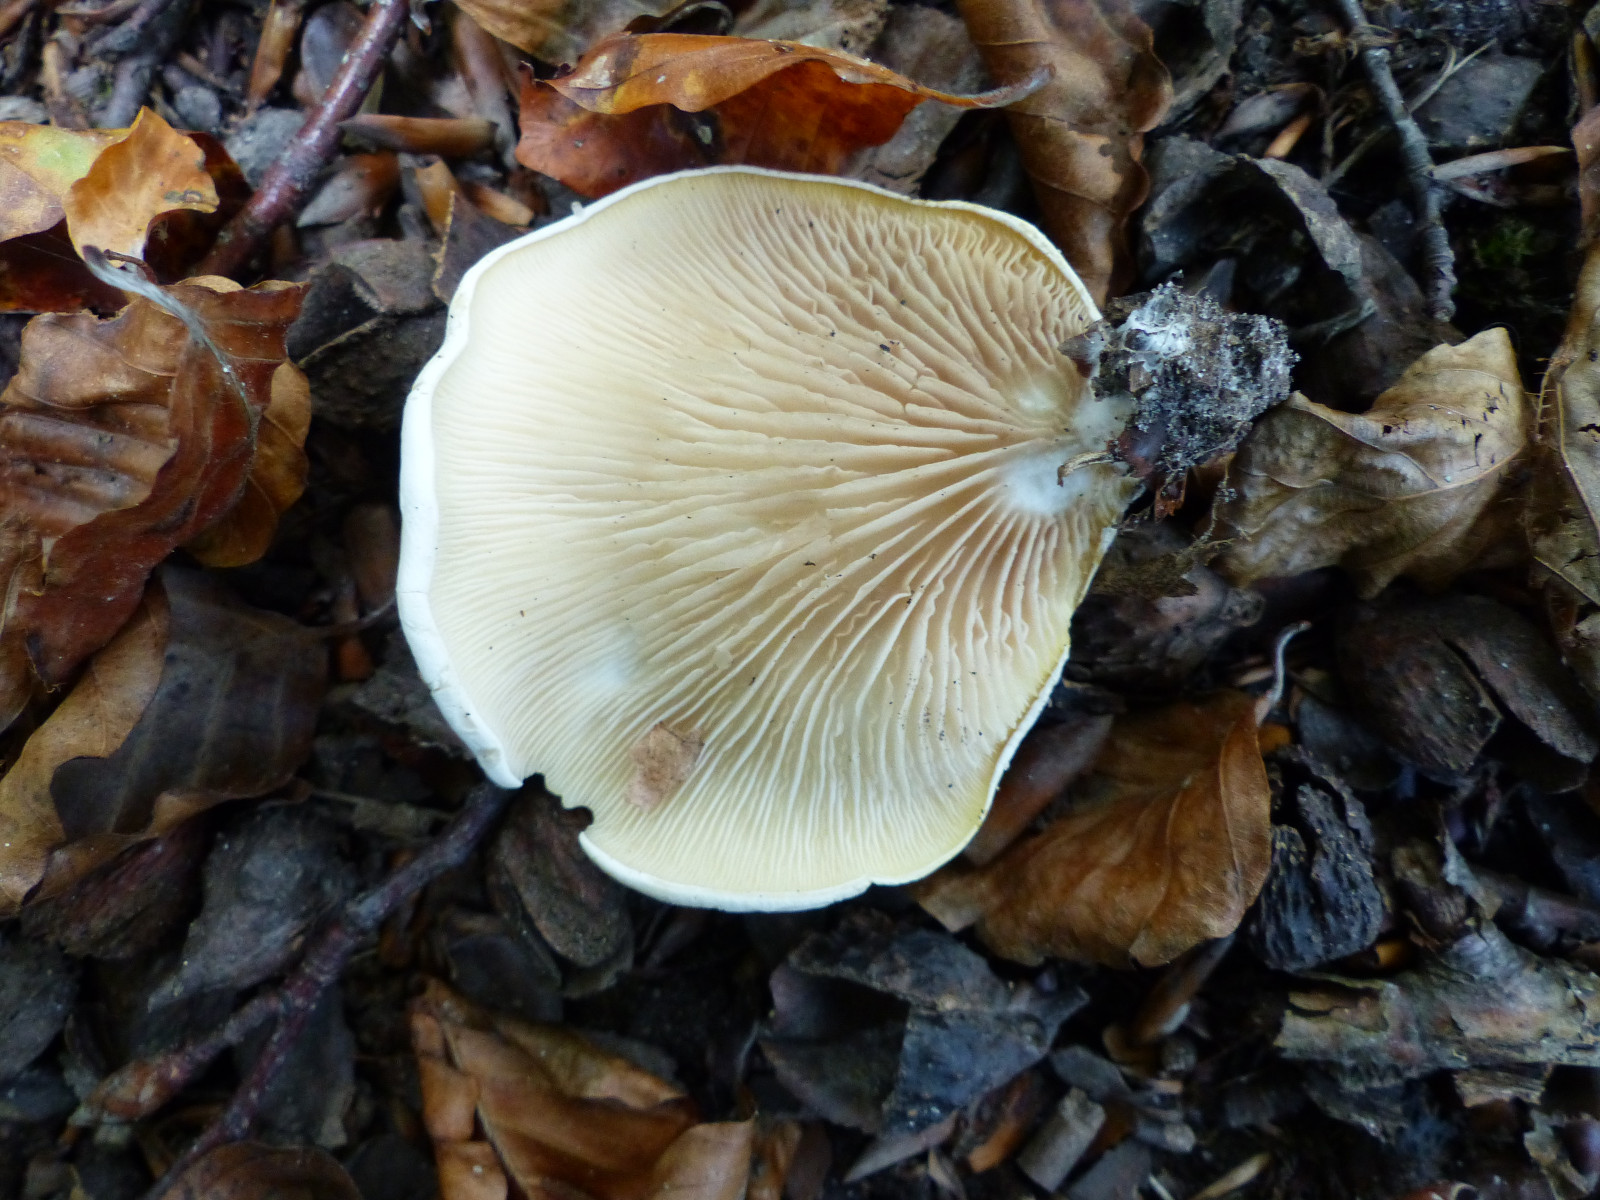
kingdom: Fungi
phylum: Basidiomycota
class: Agaricomycetes
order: Agaricales
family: Entolomataceae
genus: Clitopilus
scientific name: Clitopilus prunulus
